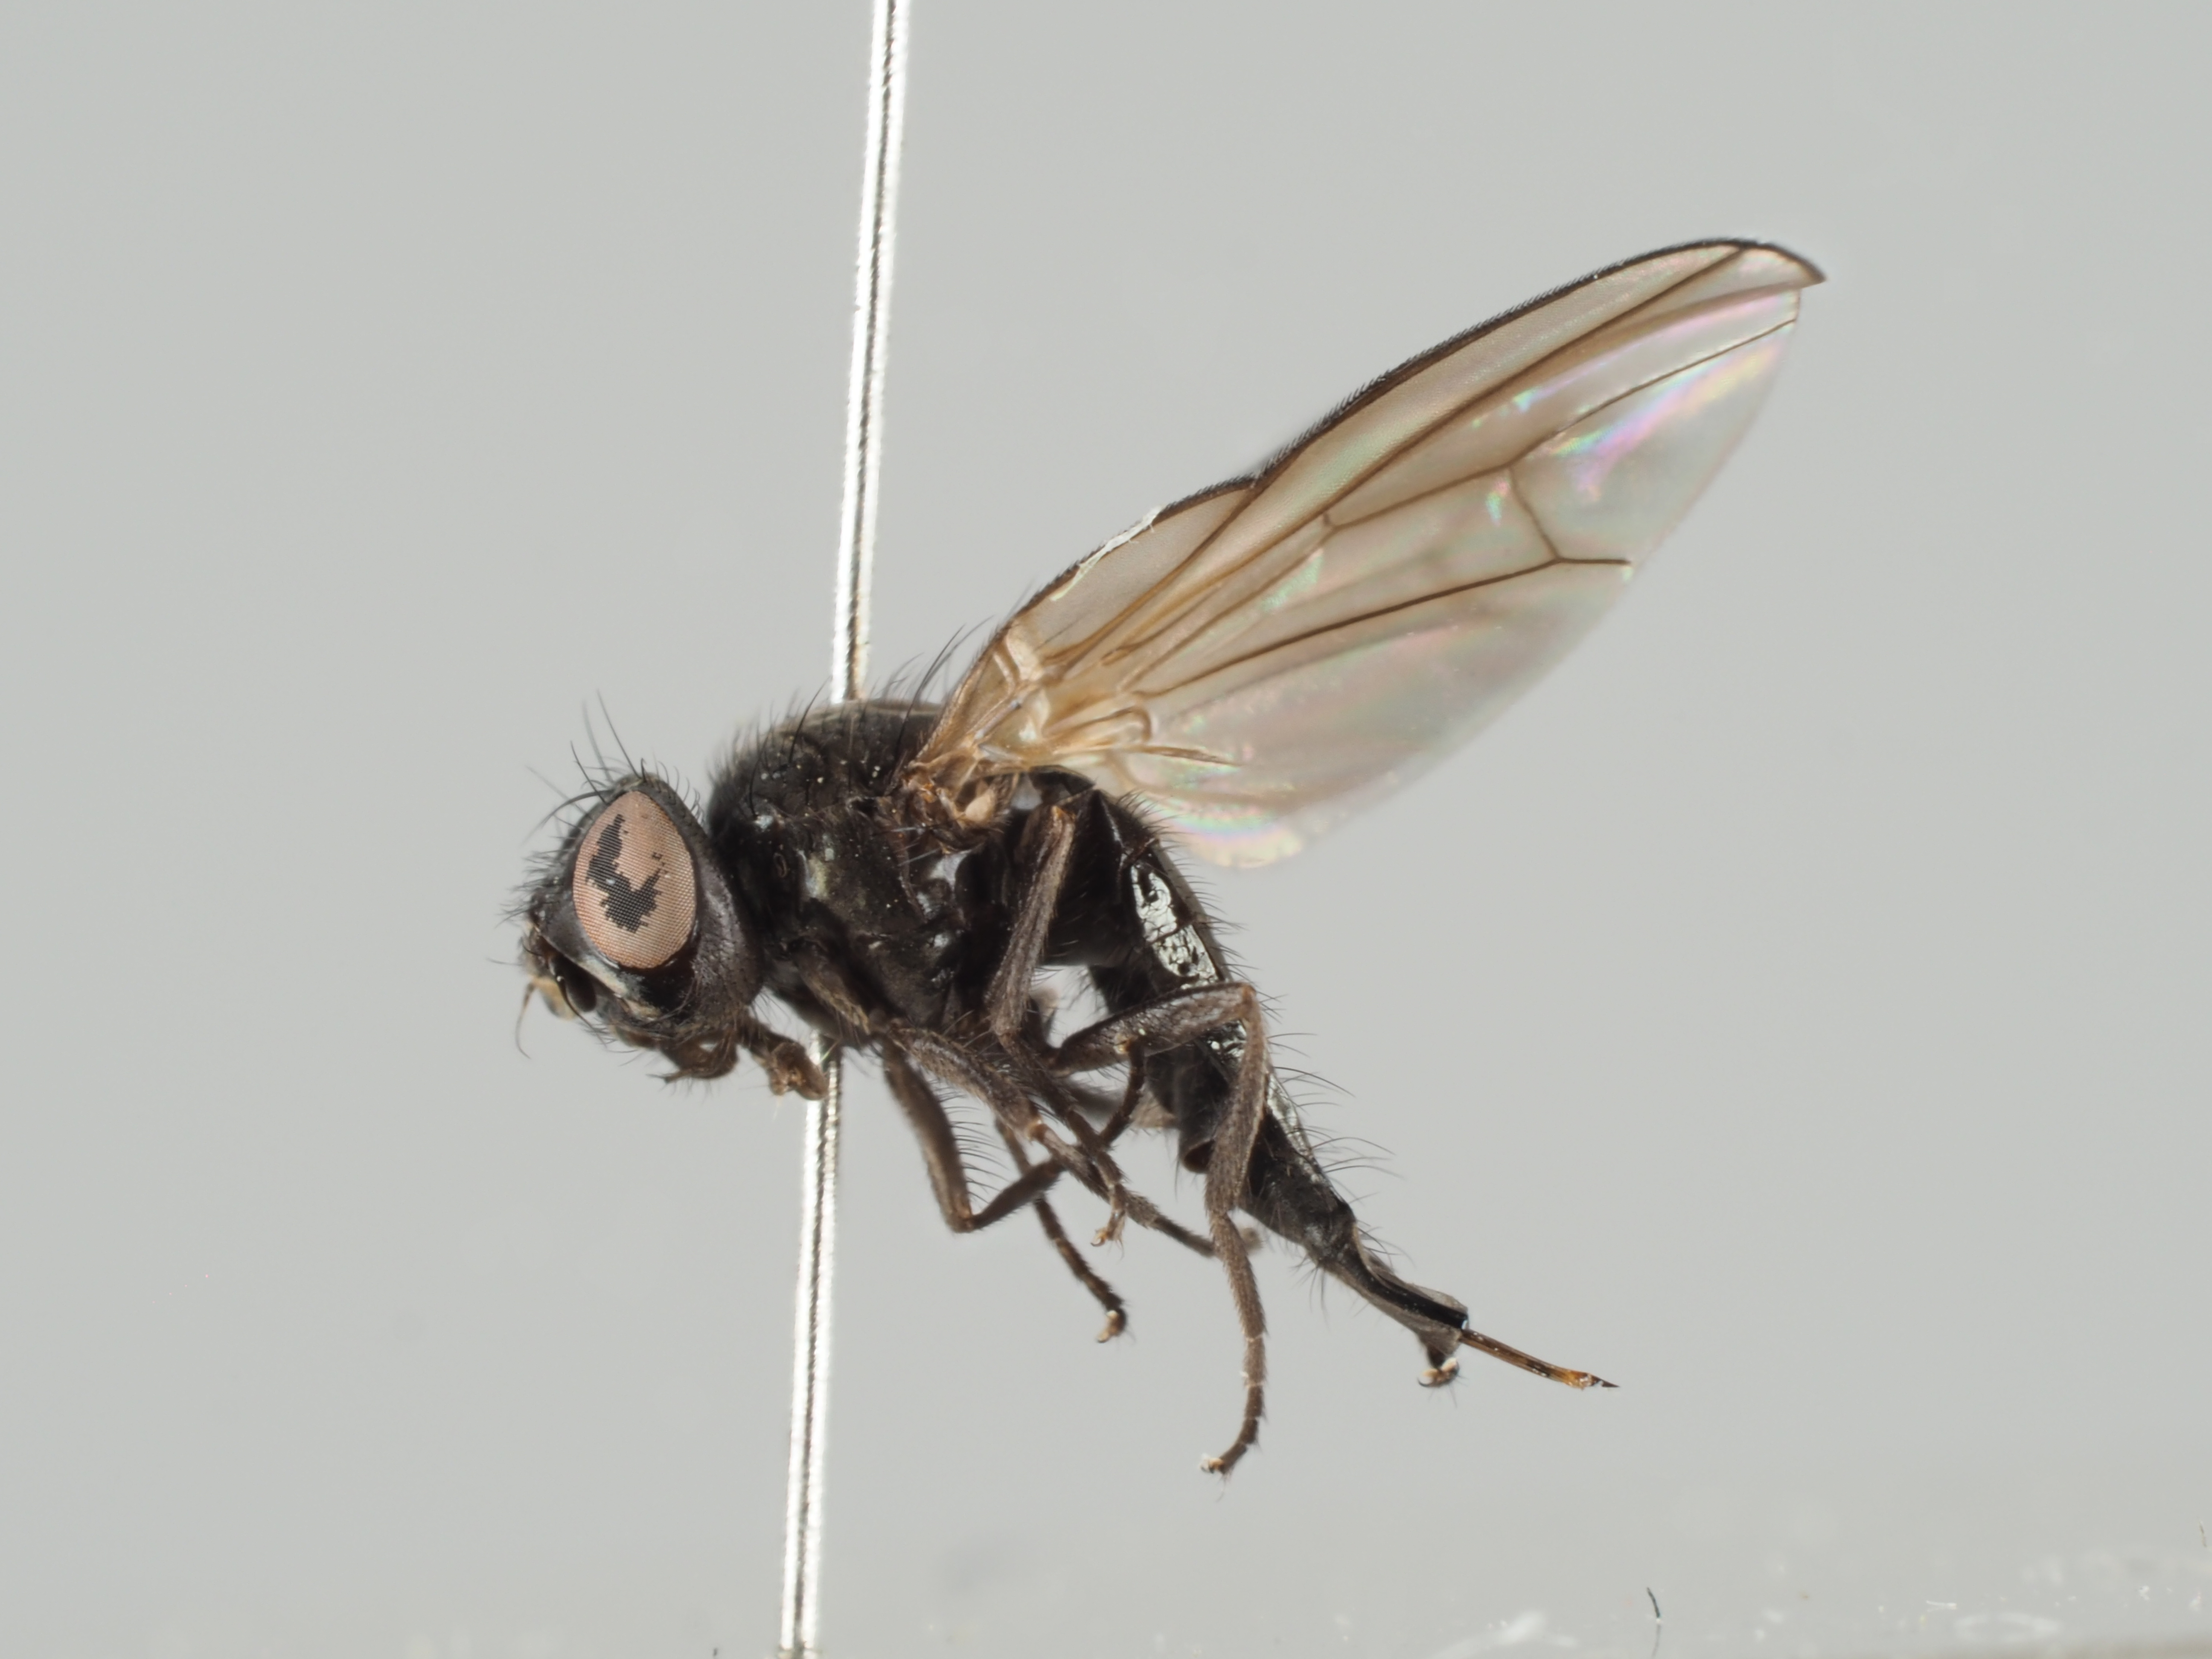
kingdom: Animalia
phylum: Arthropoda
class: Insecta
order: Diptera
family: Lonchaeidae
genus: Earomyia
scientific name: Earomyia lonchaeoides
